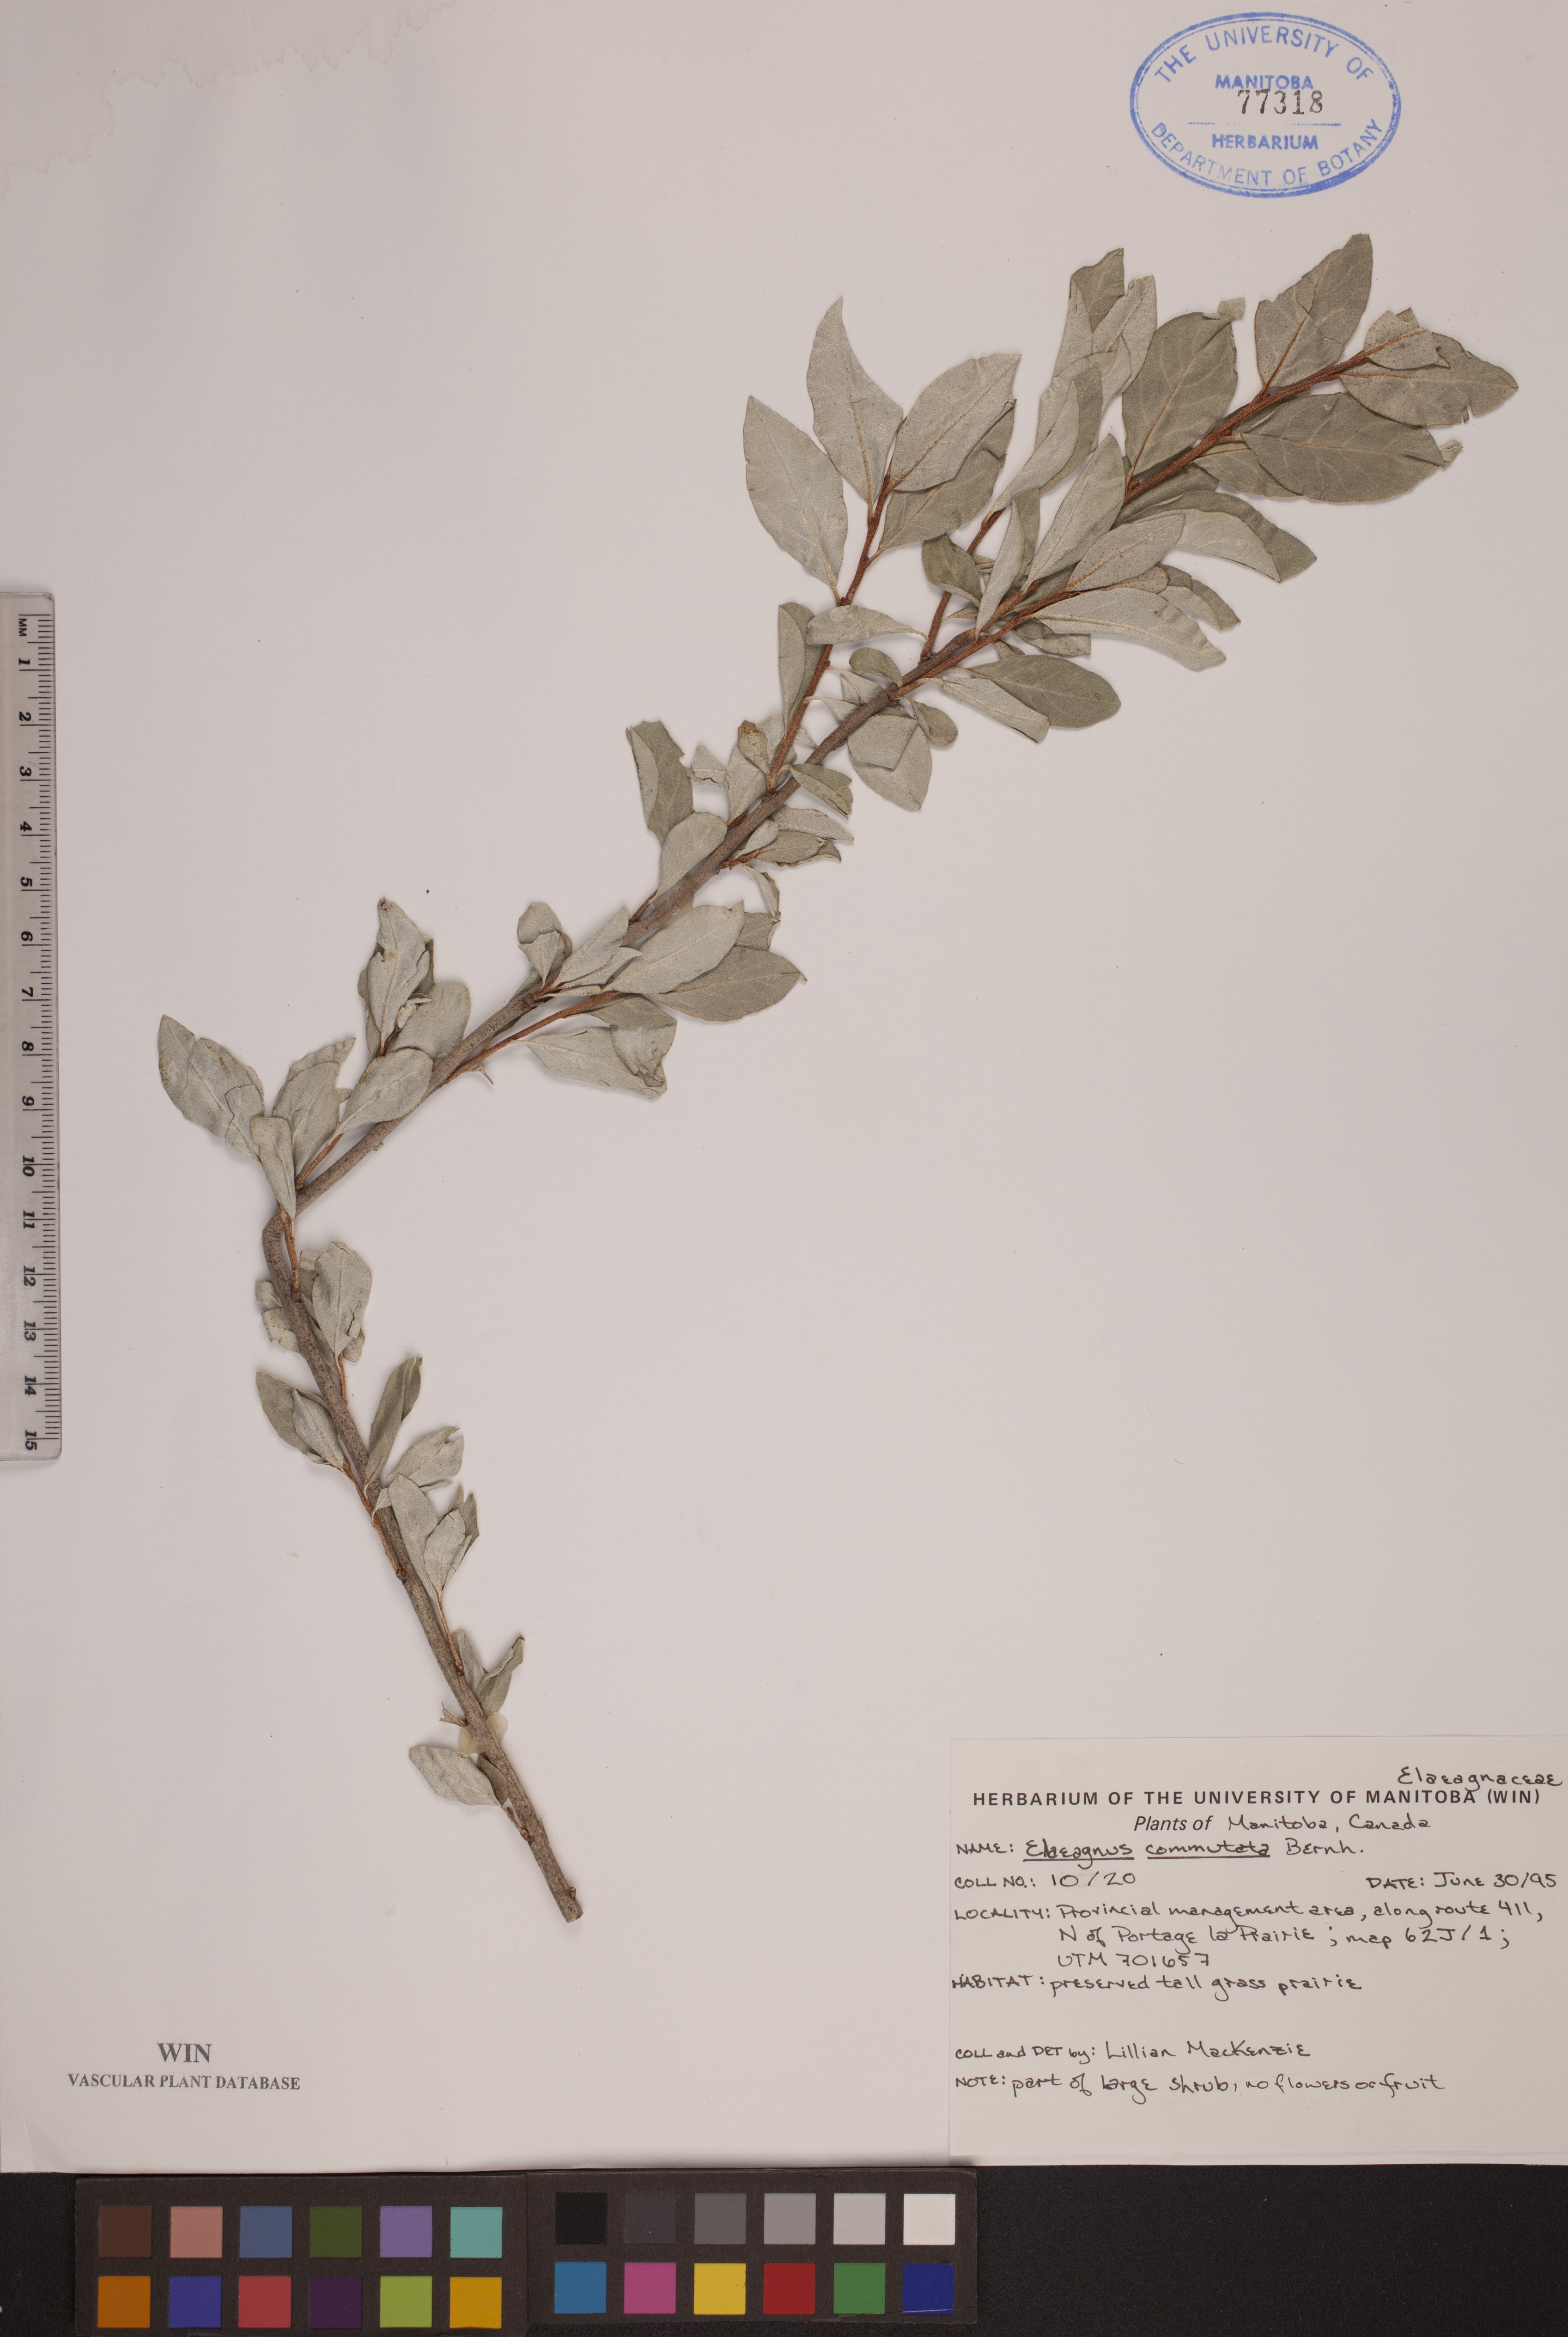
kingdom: Plantae
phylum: Tracheophyta
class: Magnoliopsida
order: Rosales
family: Elaeagnaceae
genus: Elaeagnus
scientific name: Elaeagnus commutata
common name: Silverberry
